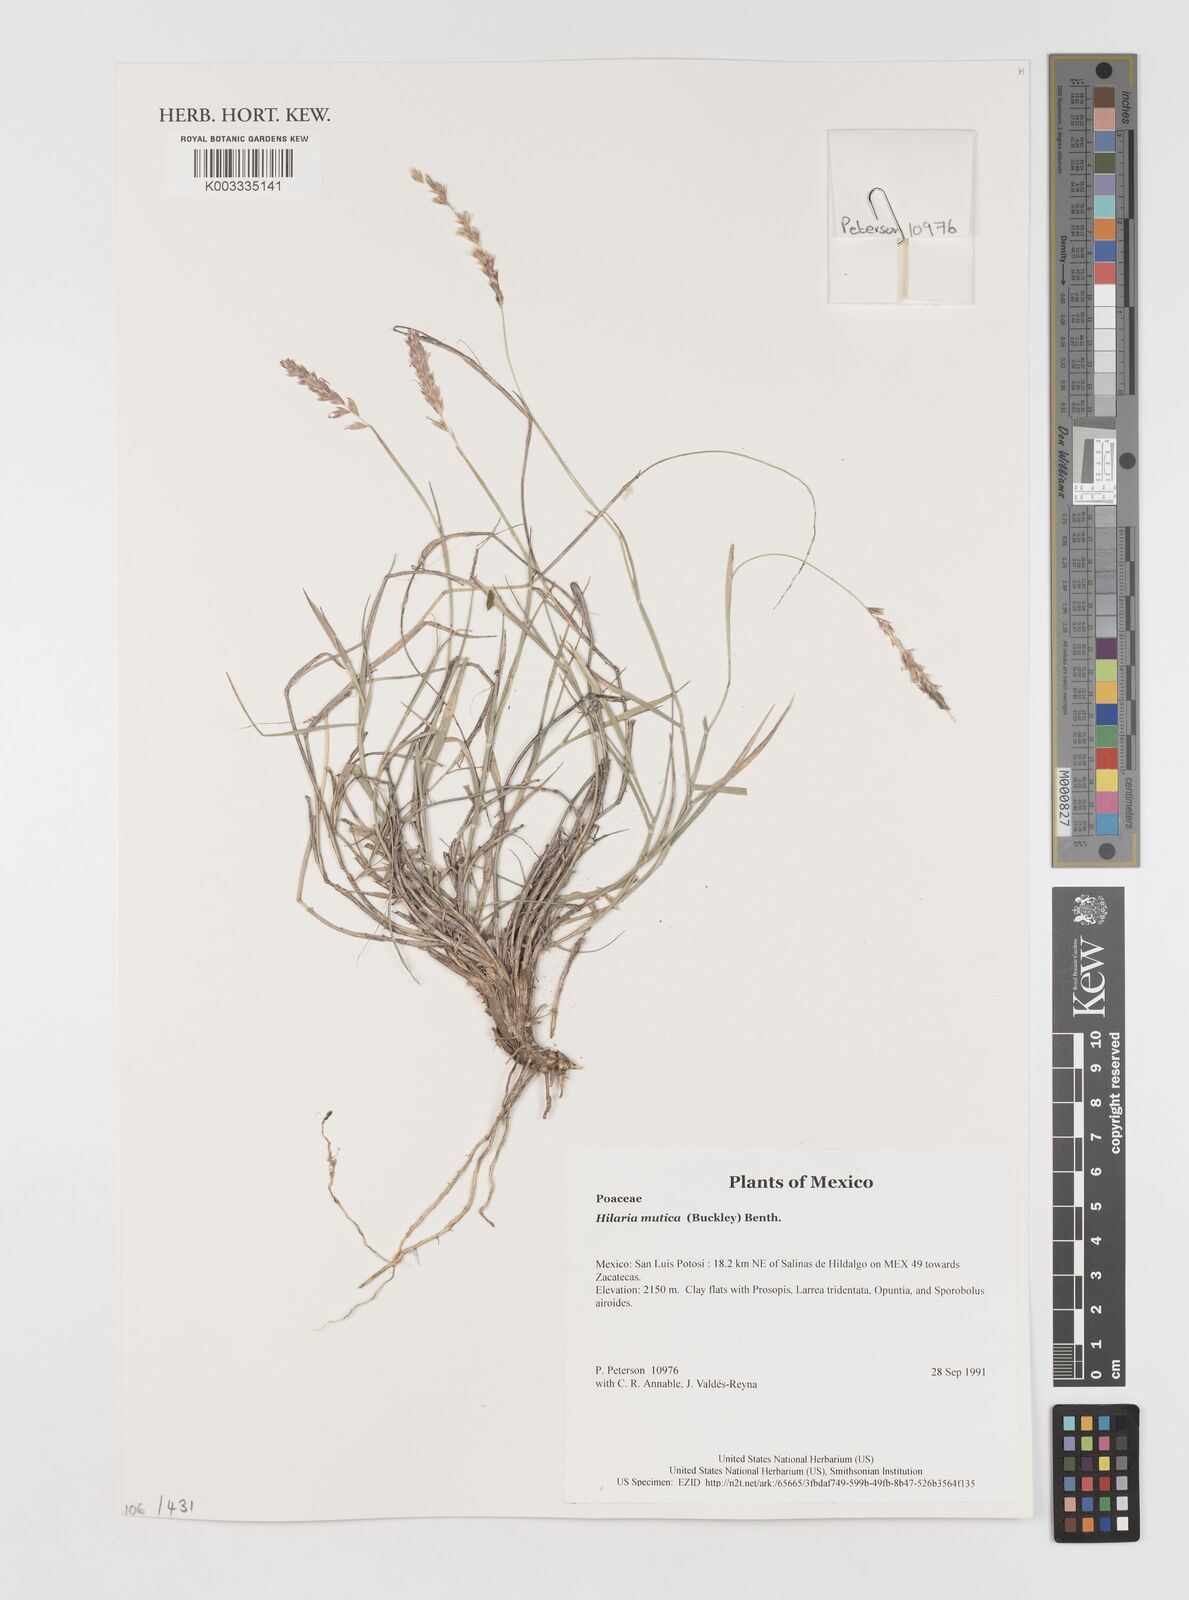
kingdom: Plantae
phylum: Tracheophyta
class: Liliopsida
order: Poales
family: Poaceae
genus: Hilaria
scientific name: Hilaria mutica
